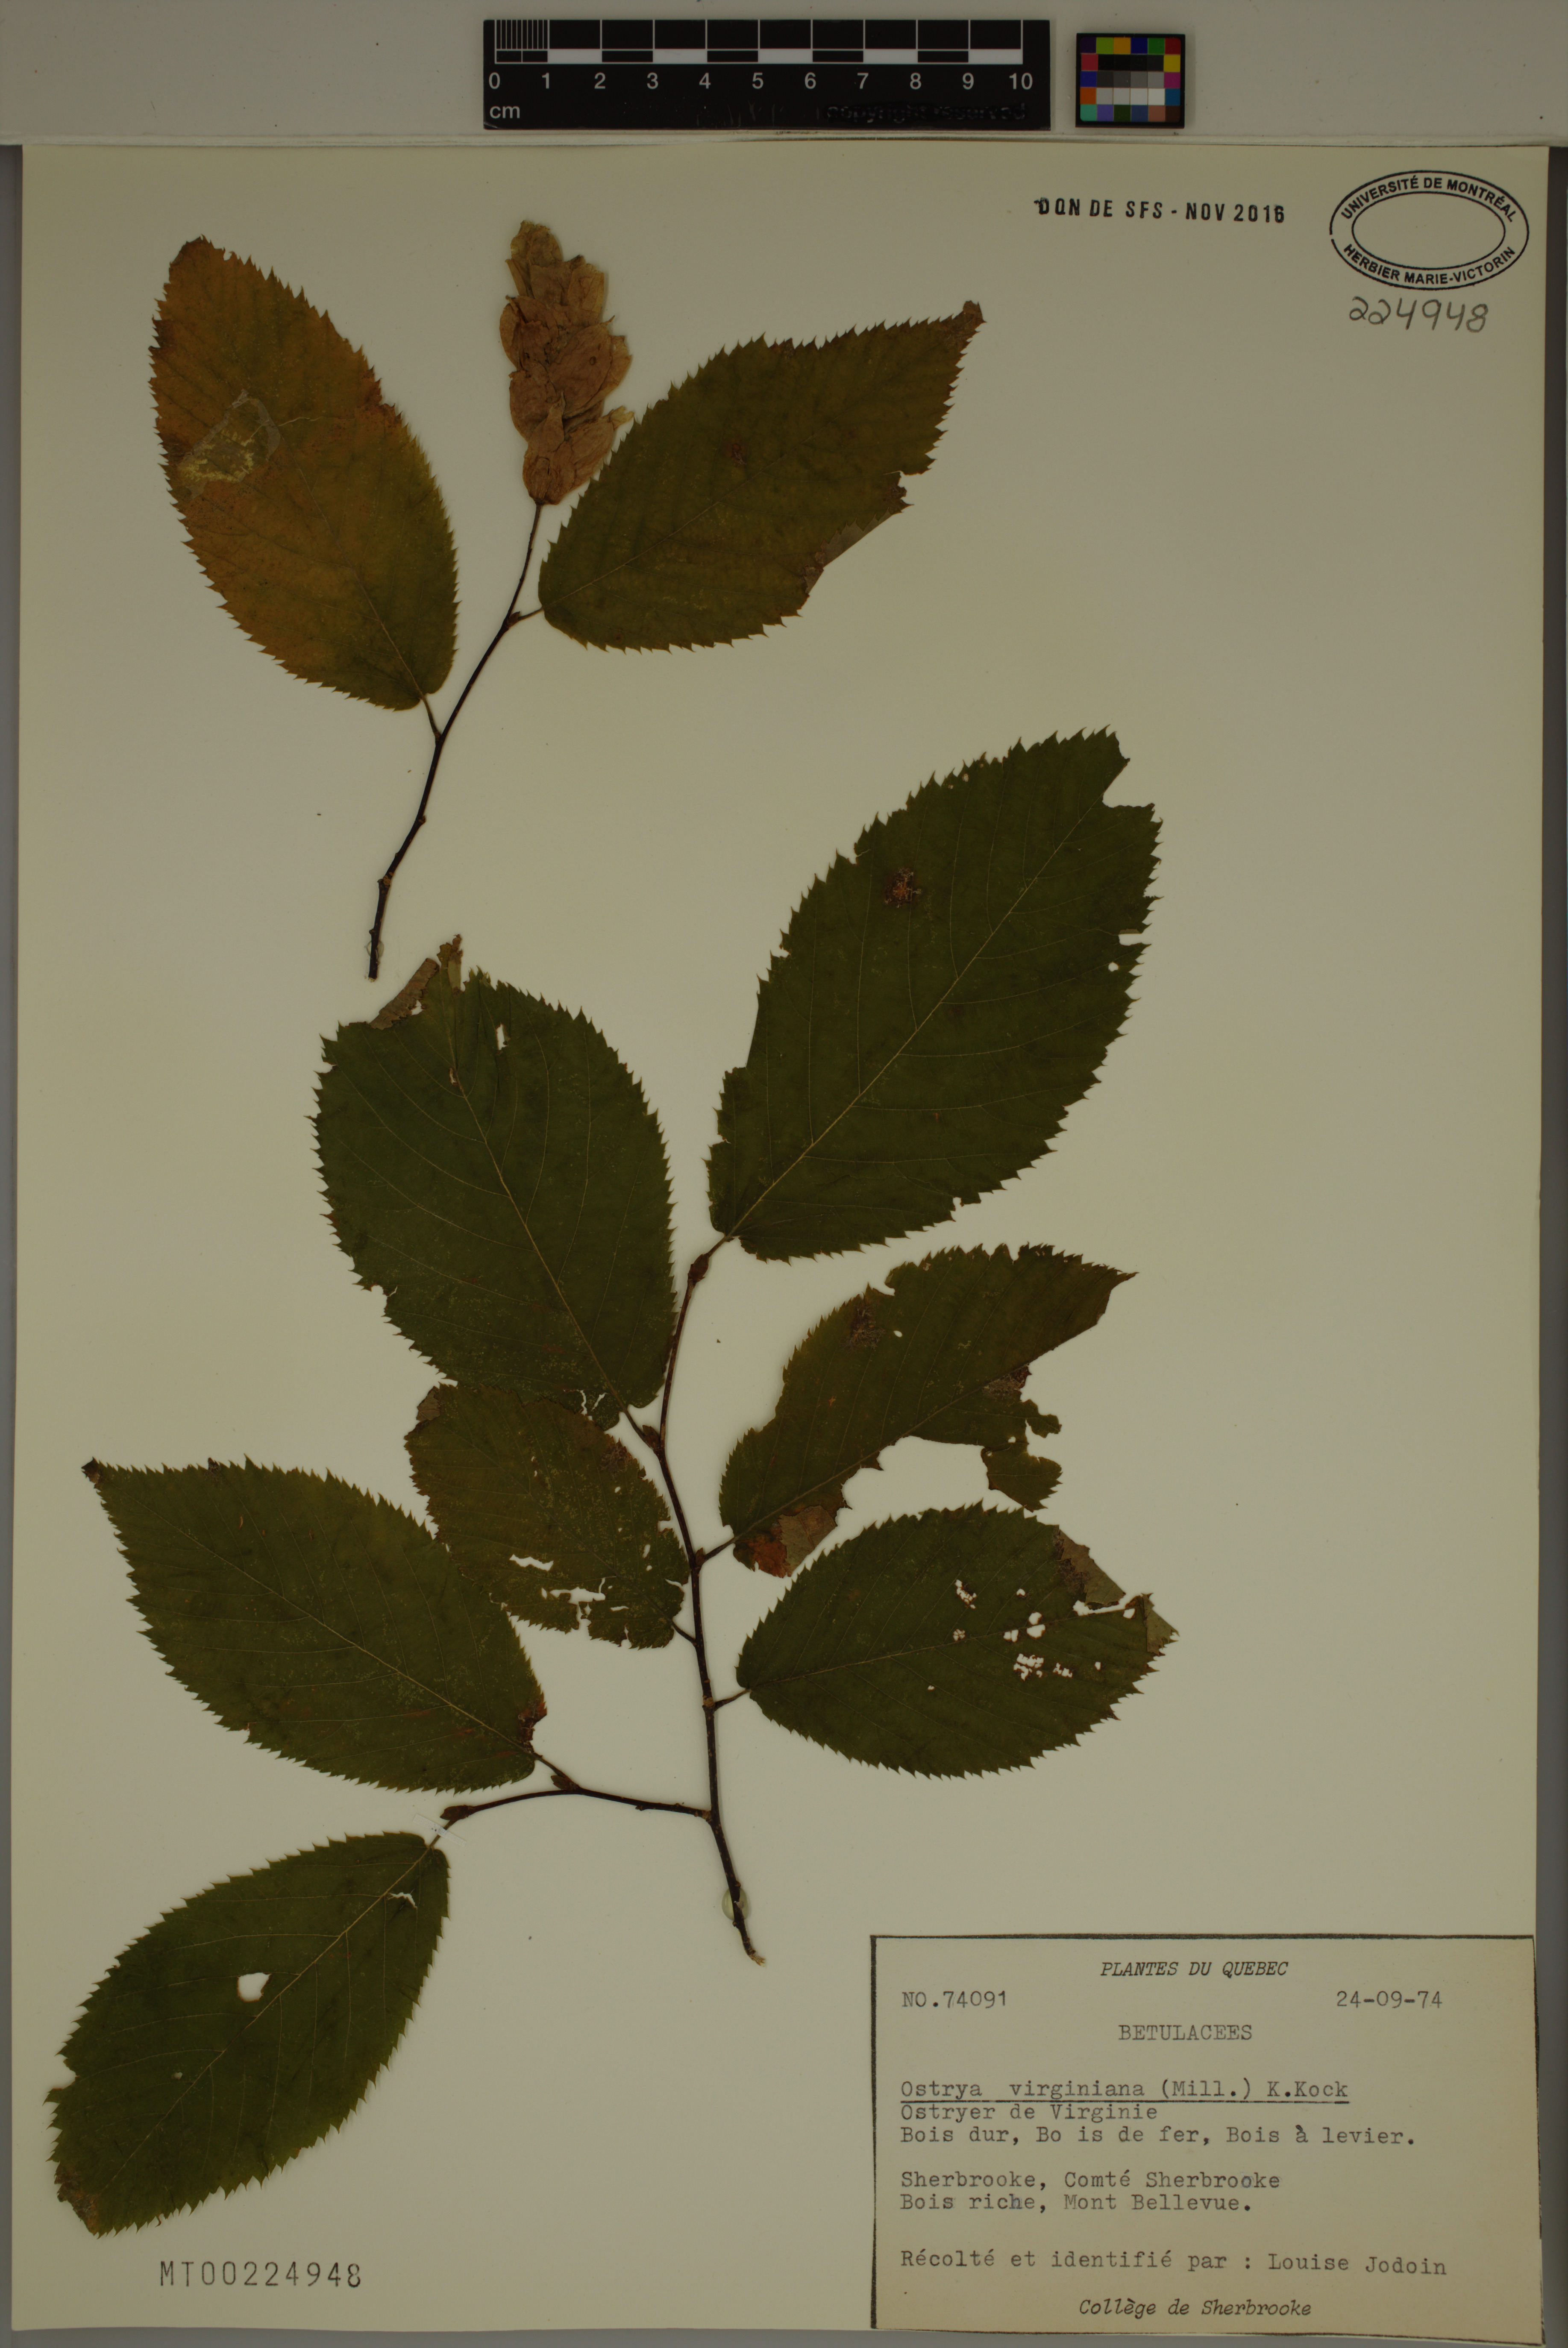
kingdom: Plantae
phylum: Tracheophyta
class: Magnoliopsida
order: Fagales
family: Betulaceae
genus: Ostrya
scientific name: Ostrya virginiana
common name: Ironwood
